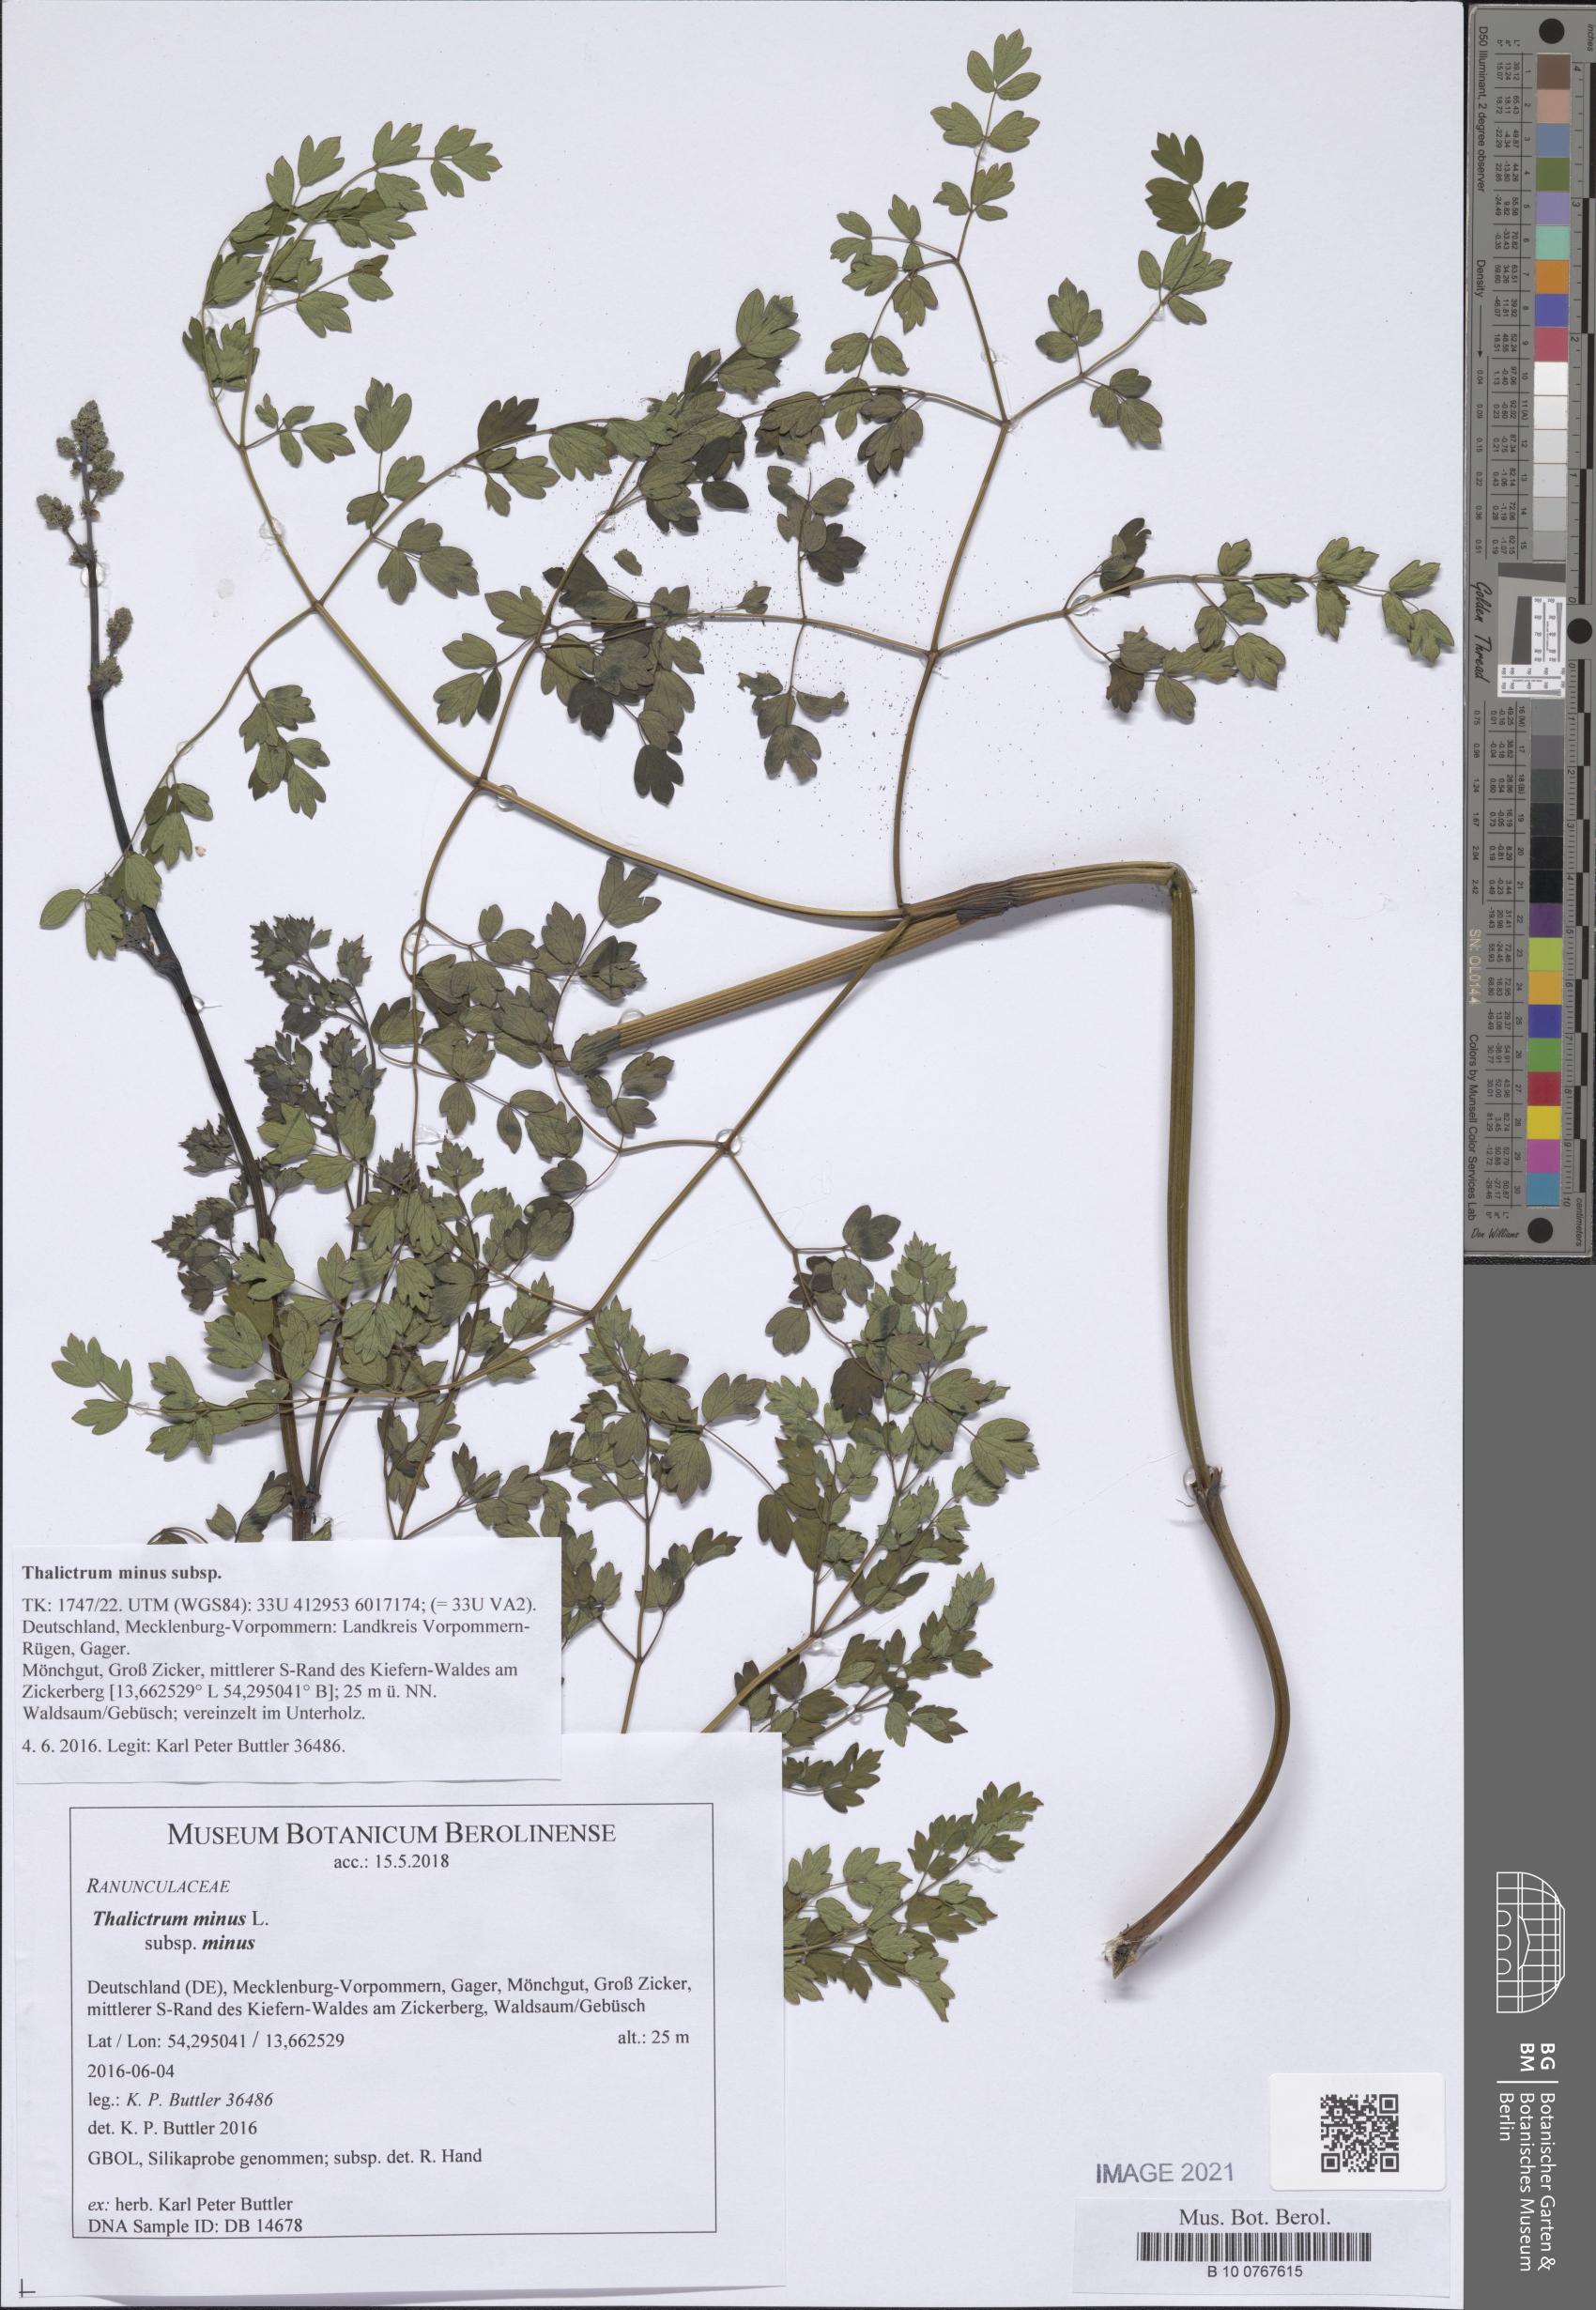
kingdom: Plantae
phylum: Tracheophyta
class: Magnoliopsida
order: Ranunculales
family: Ranunculaceae
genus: Thalictrum
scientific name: Thalictrum minus
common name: Lesser meadow-rue
